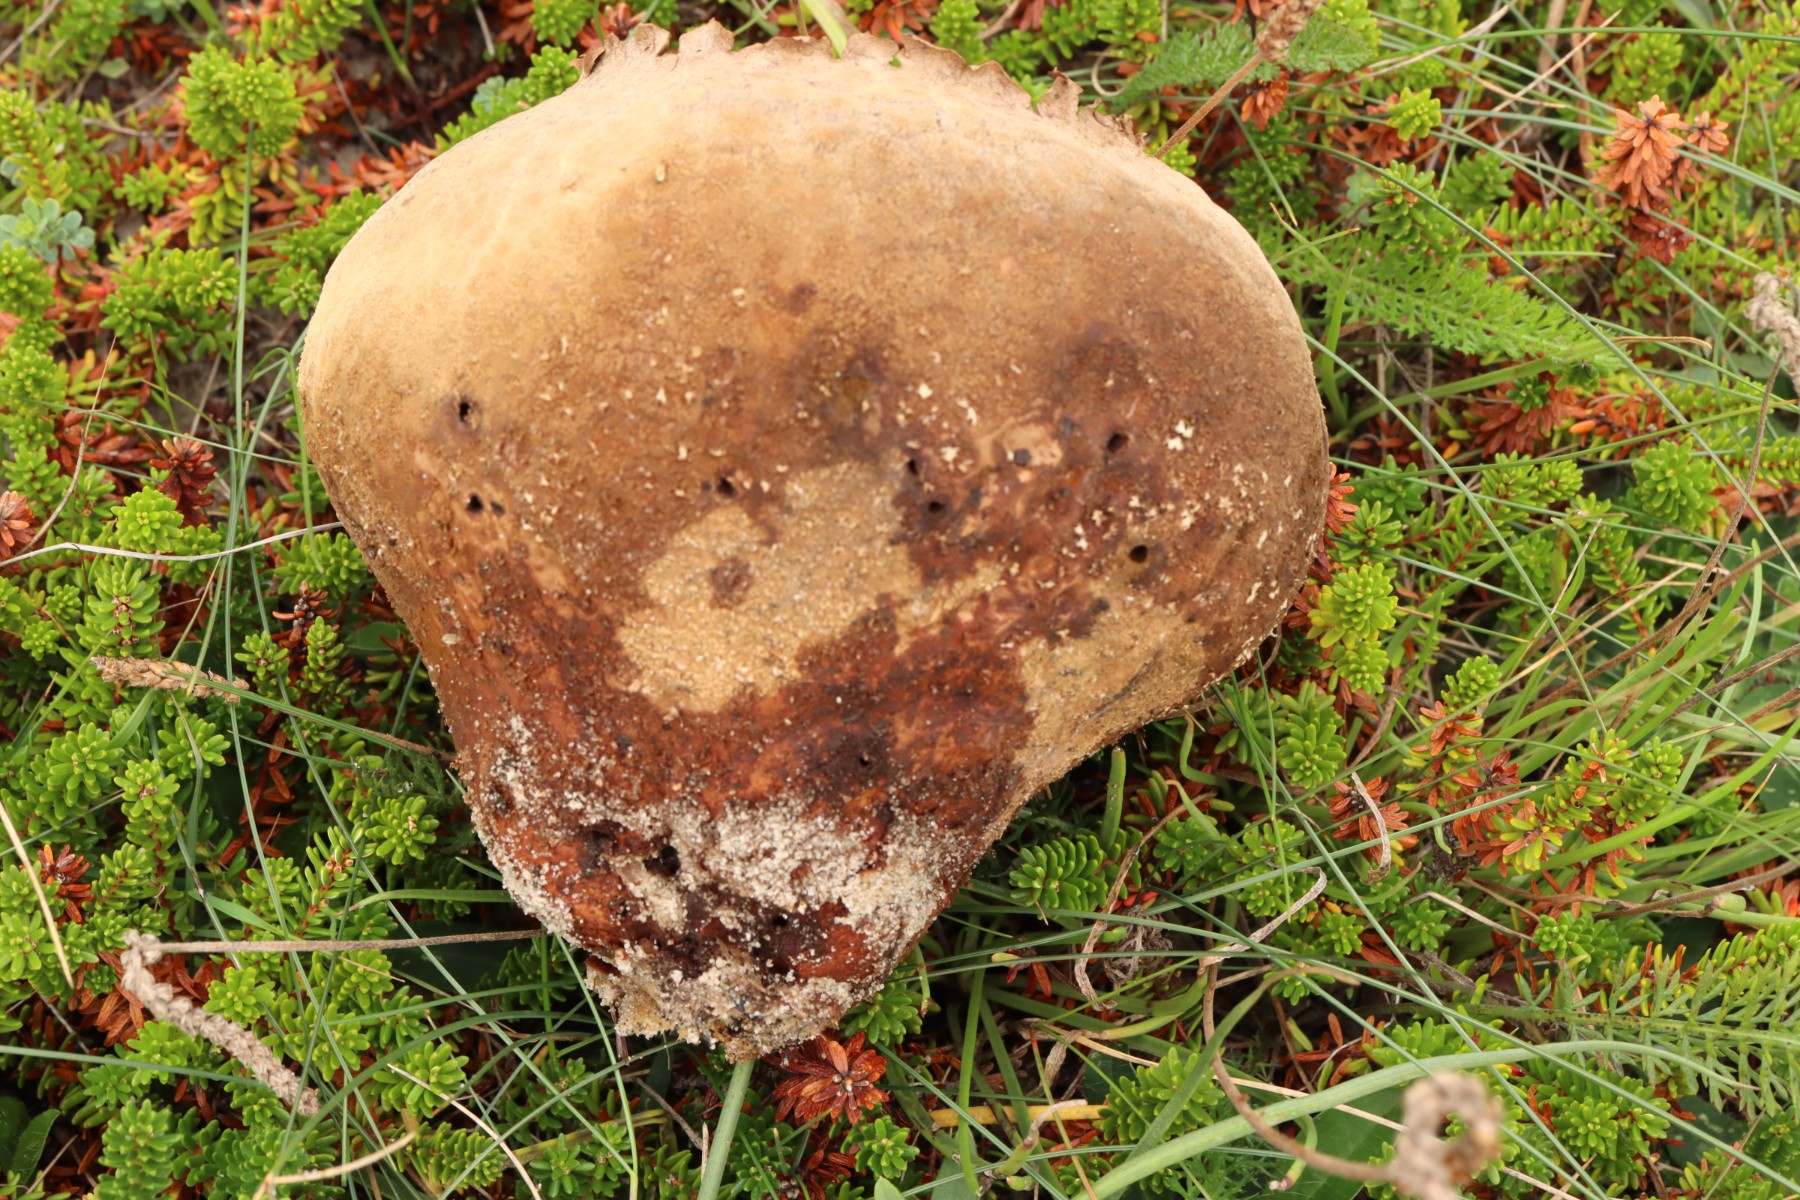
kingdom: Fungi
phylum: Basidiomycota
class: Agaricomycetes
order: Agaricales
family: Lycoperdaceae
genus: Bovistella
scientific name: Bovistella utriformis
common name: skællet støvbold
